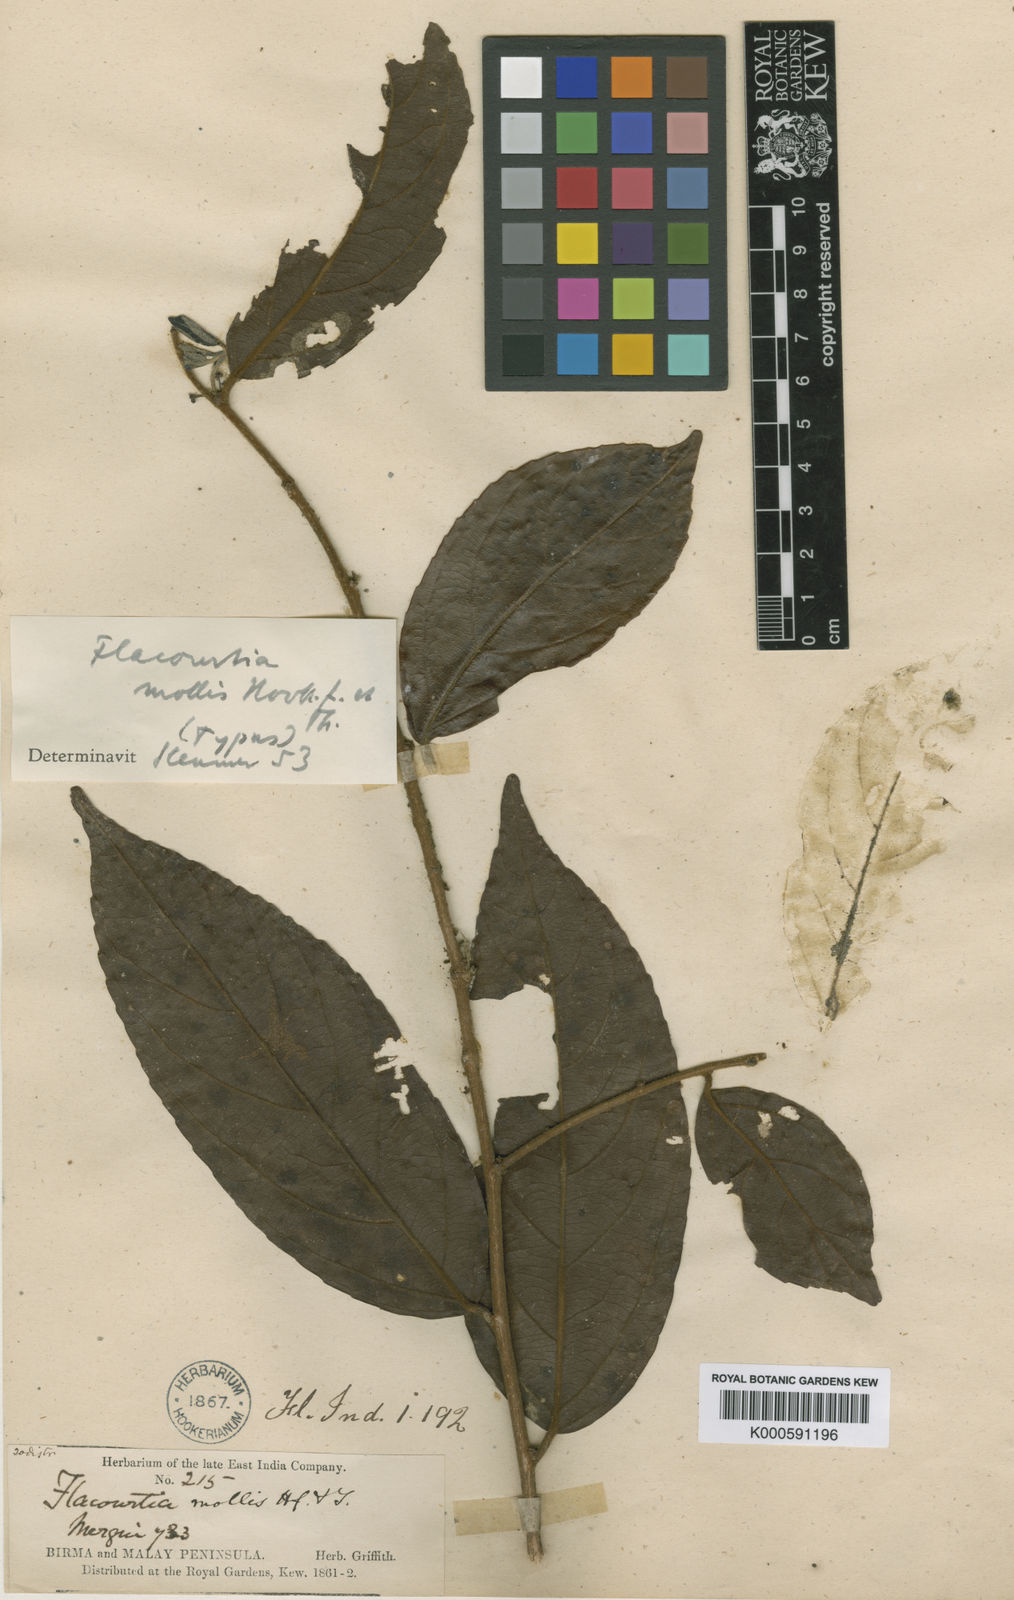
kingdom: Plantae
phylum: Tracheophyta
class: Magnoliopsida
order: Malpighiales
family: Salicaceae
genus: Flacourtia
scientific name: Flacourtia mollis
